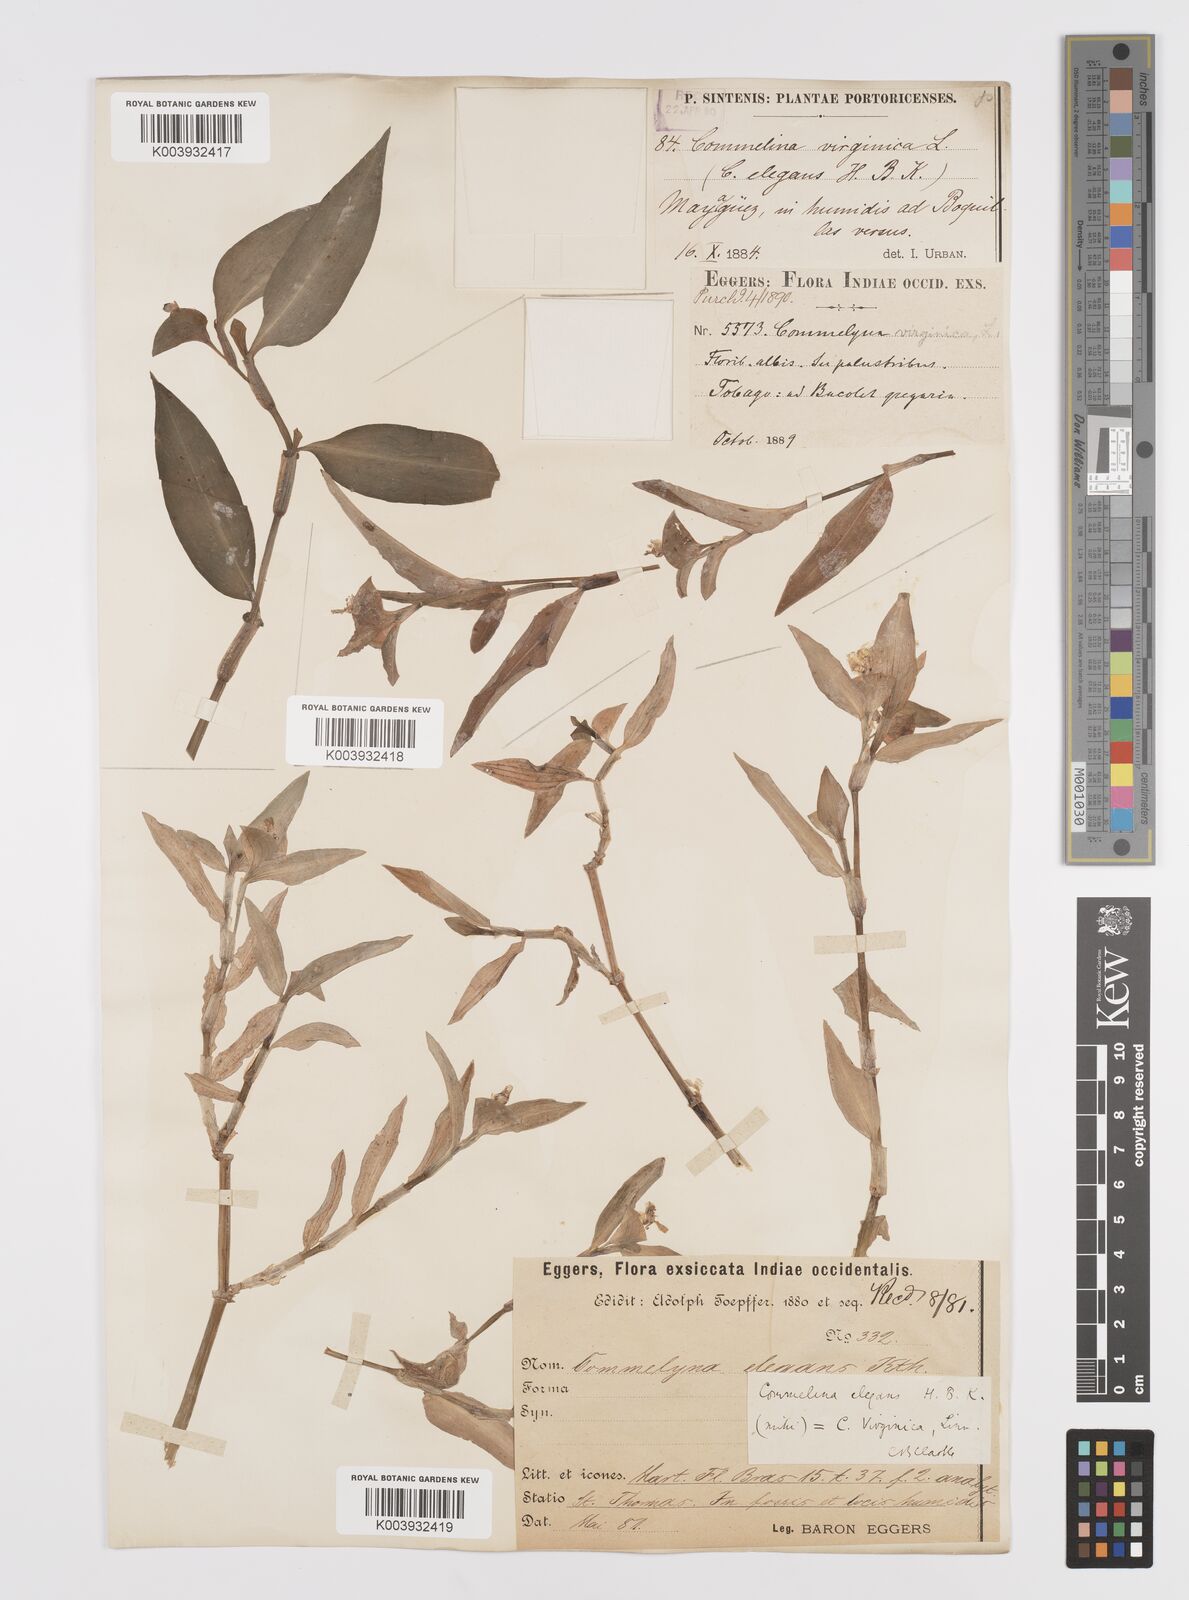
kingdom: Plantae
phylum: Tracheophyta
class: Liliopsida
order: Commelinales
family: Commelinaceae
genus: Commelina
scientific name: Commelina erecta
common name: Blousel blommetjie
